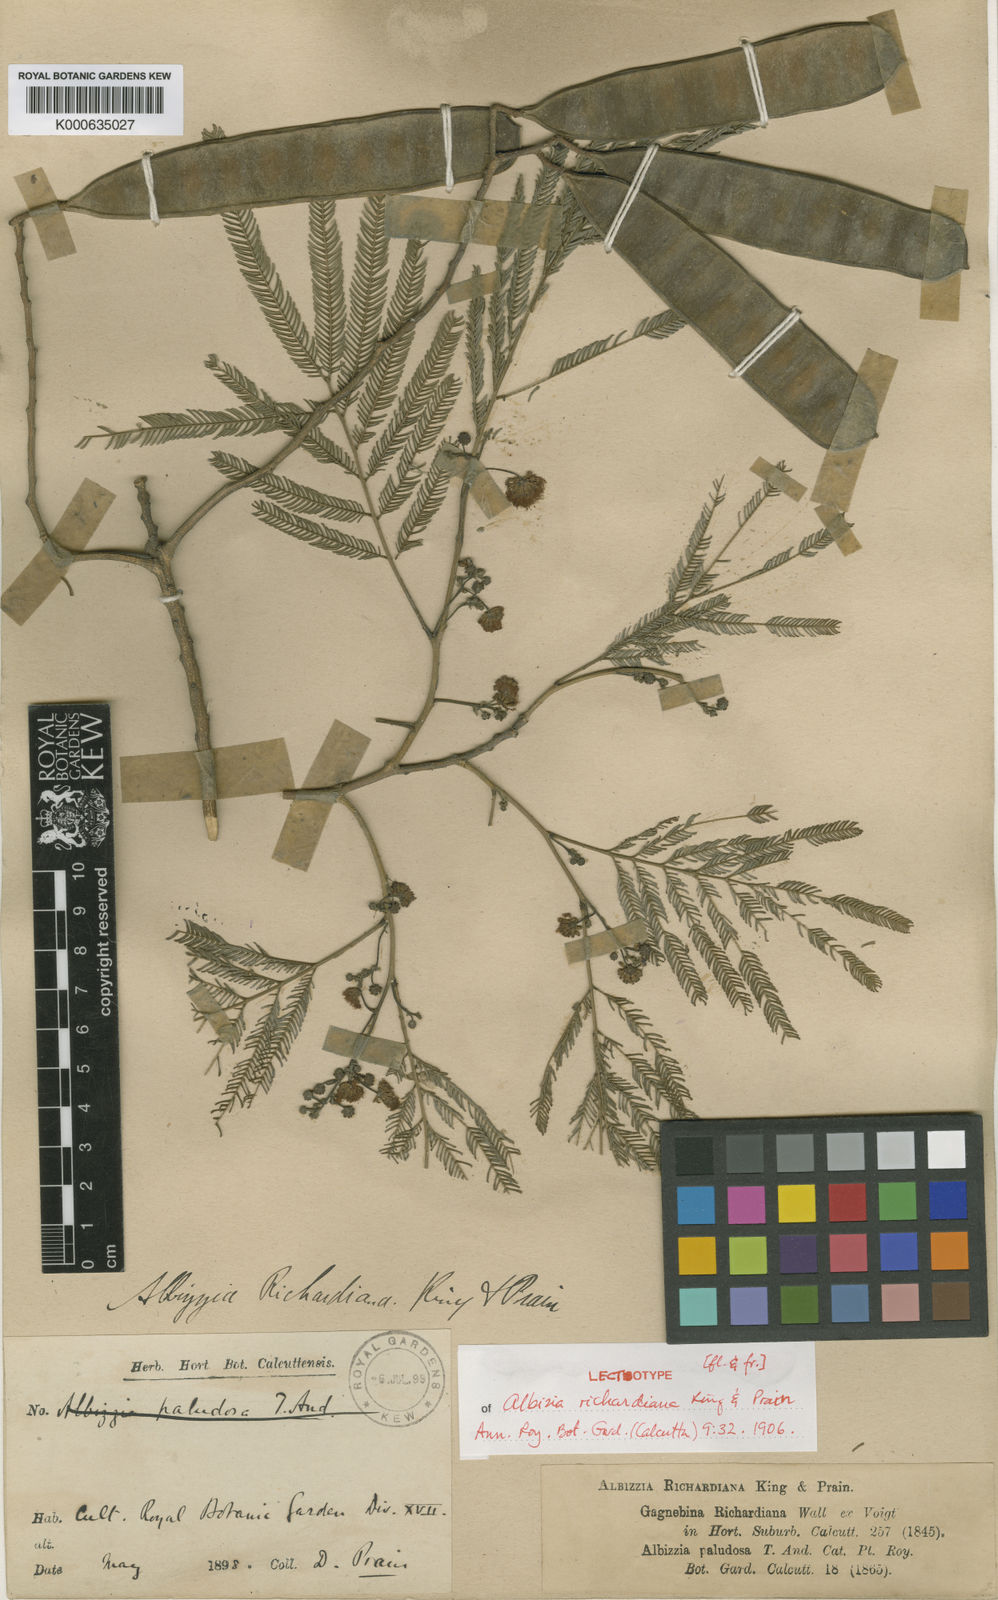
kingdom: Plantae
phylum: Tracheophyta
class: Magnoliopsida
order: Fabales
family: Fabaceae
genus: Albizia
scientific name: Albizia niopoides
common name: Silk tree
